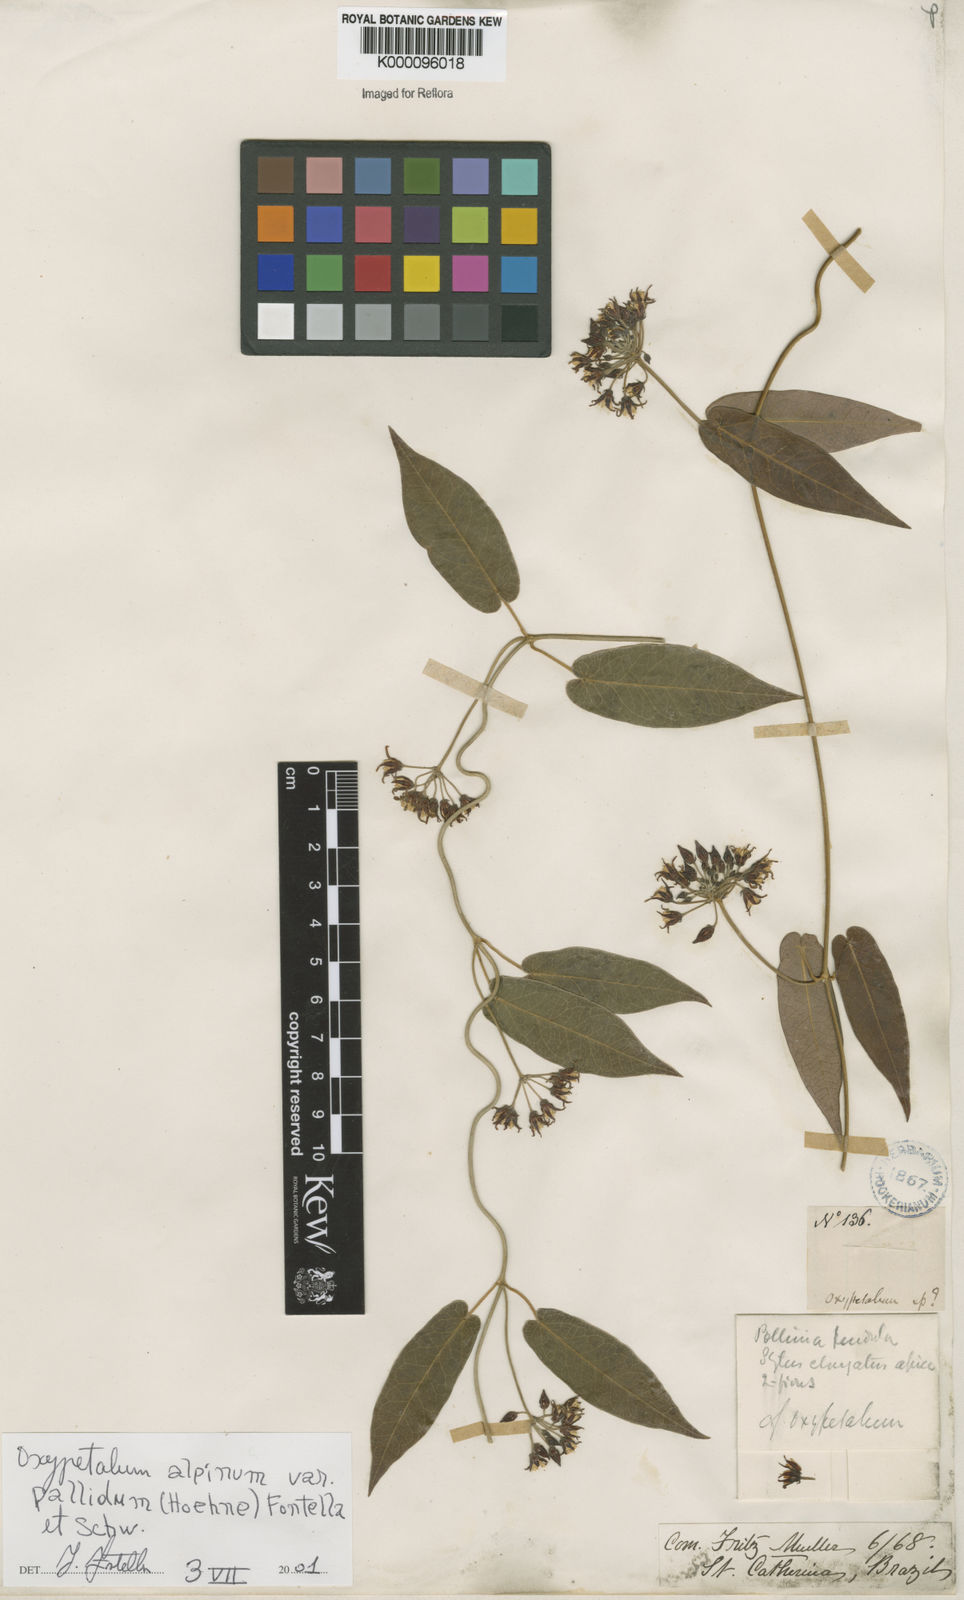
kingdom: Plantae
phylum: Tracheophyta
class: Magnoliopsida
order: Gentianales
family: Apocynaceae
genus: Oxypetalum
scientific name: Oxypetalum alpinum
